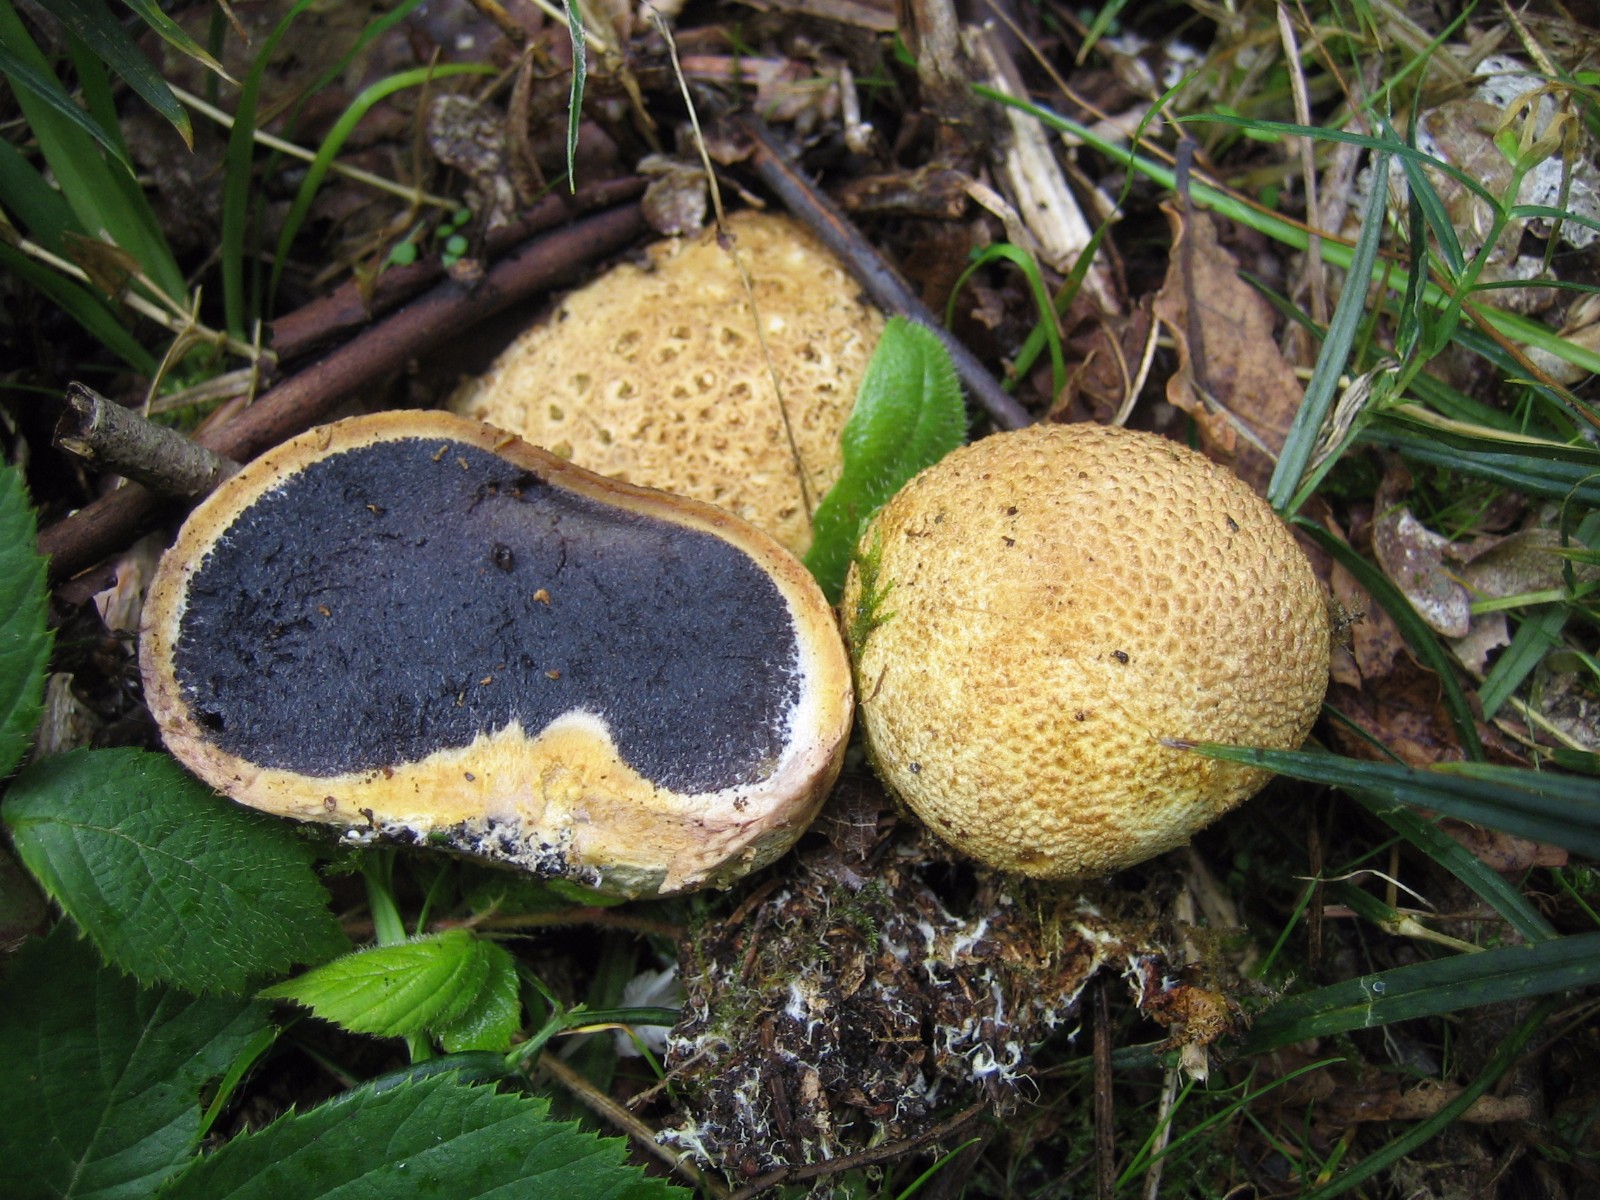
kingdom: Fungi
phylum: Basidiomycota
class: Agaricomycetes
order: Boletales
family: Sclerodermataceae
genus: Scleroderma
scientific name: Scleroderma citrinum
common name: almindelig bruskbold
